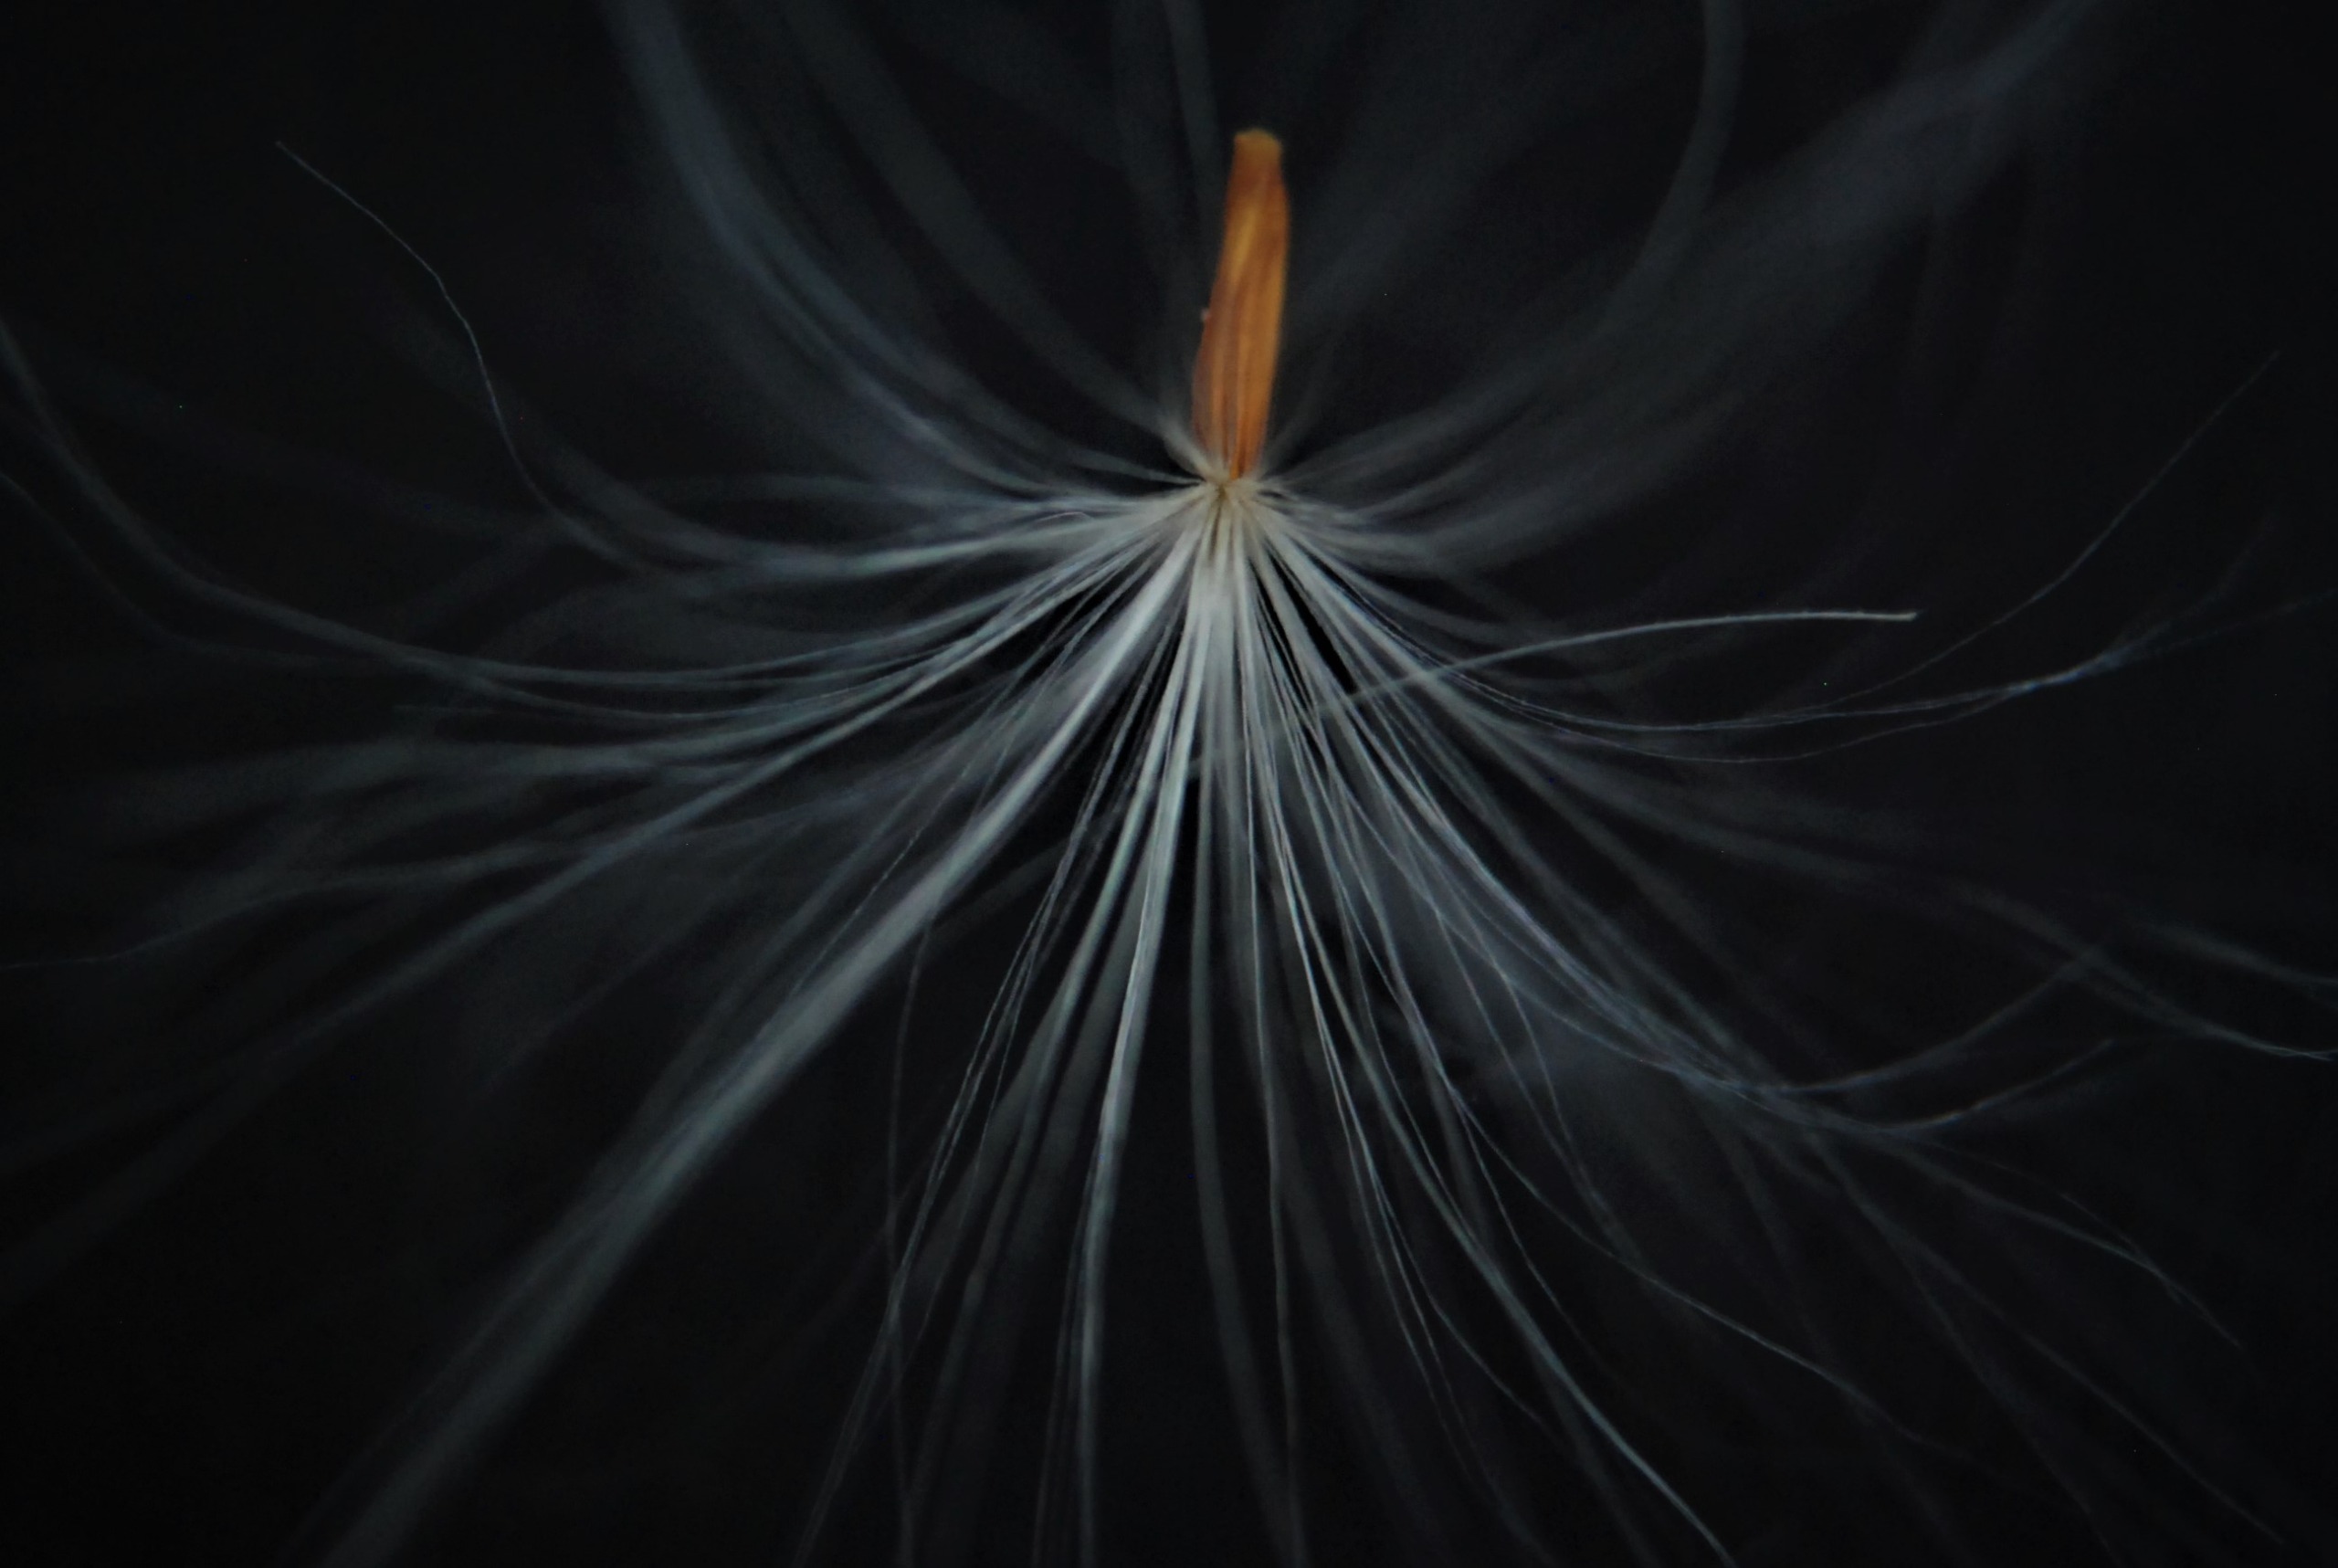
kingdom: Plantae
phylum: Tracheophyta
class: Magnoliopsida
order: Asterales
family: Asteraceae
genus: Sonchus
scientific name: Sonchus arvensis
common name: Ager-svinemælk
